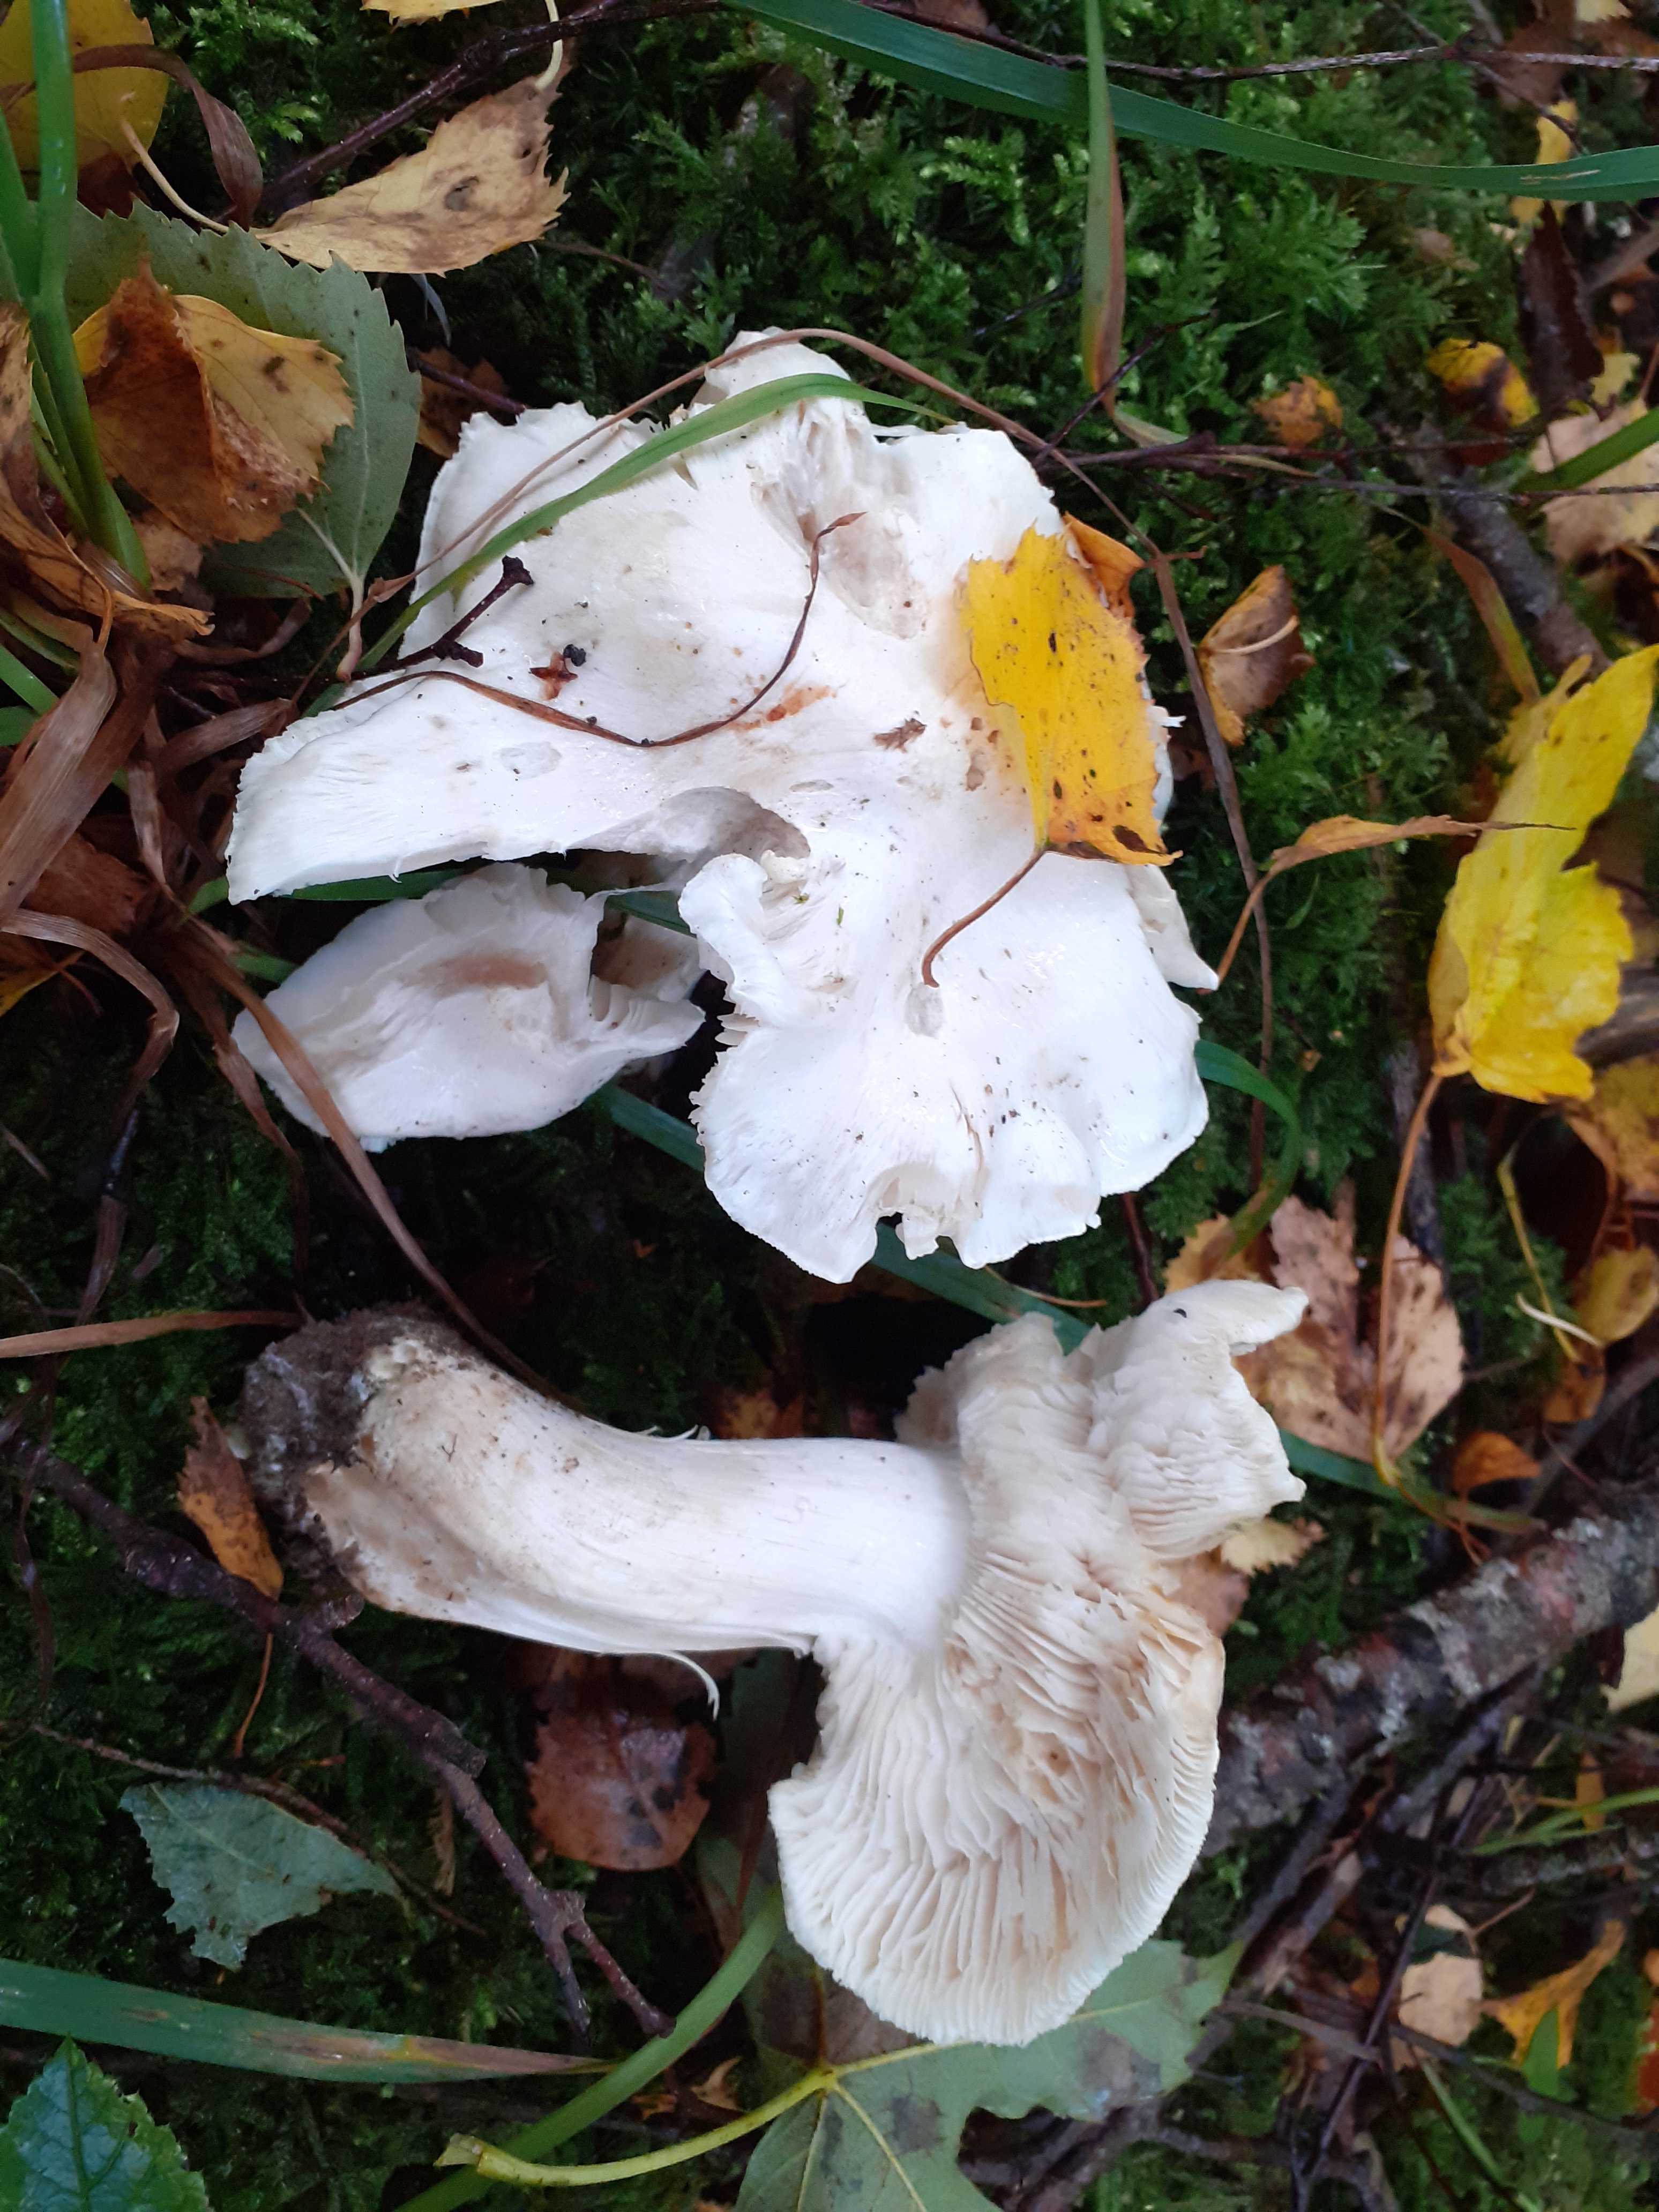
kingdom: Fungi
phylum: Basidiomycota
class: Agaricomycetes
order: Agaricales
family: Tricholomataceae
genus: Tricholoma
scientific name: Tricholoma stiparophyllum
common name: hvid ridderhat
